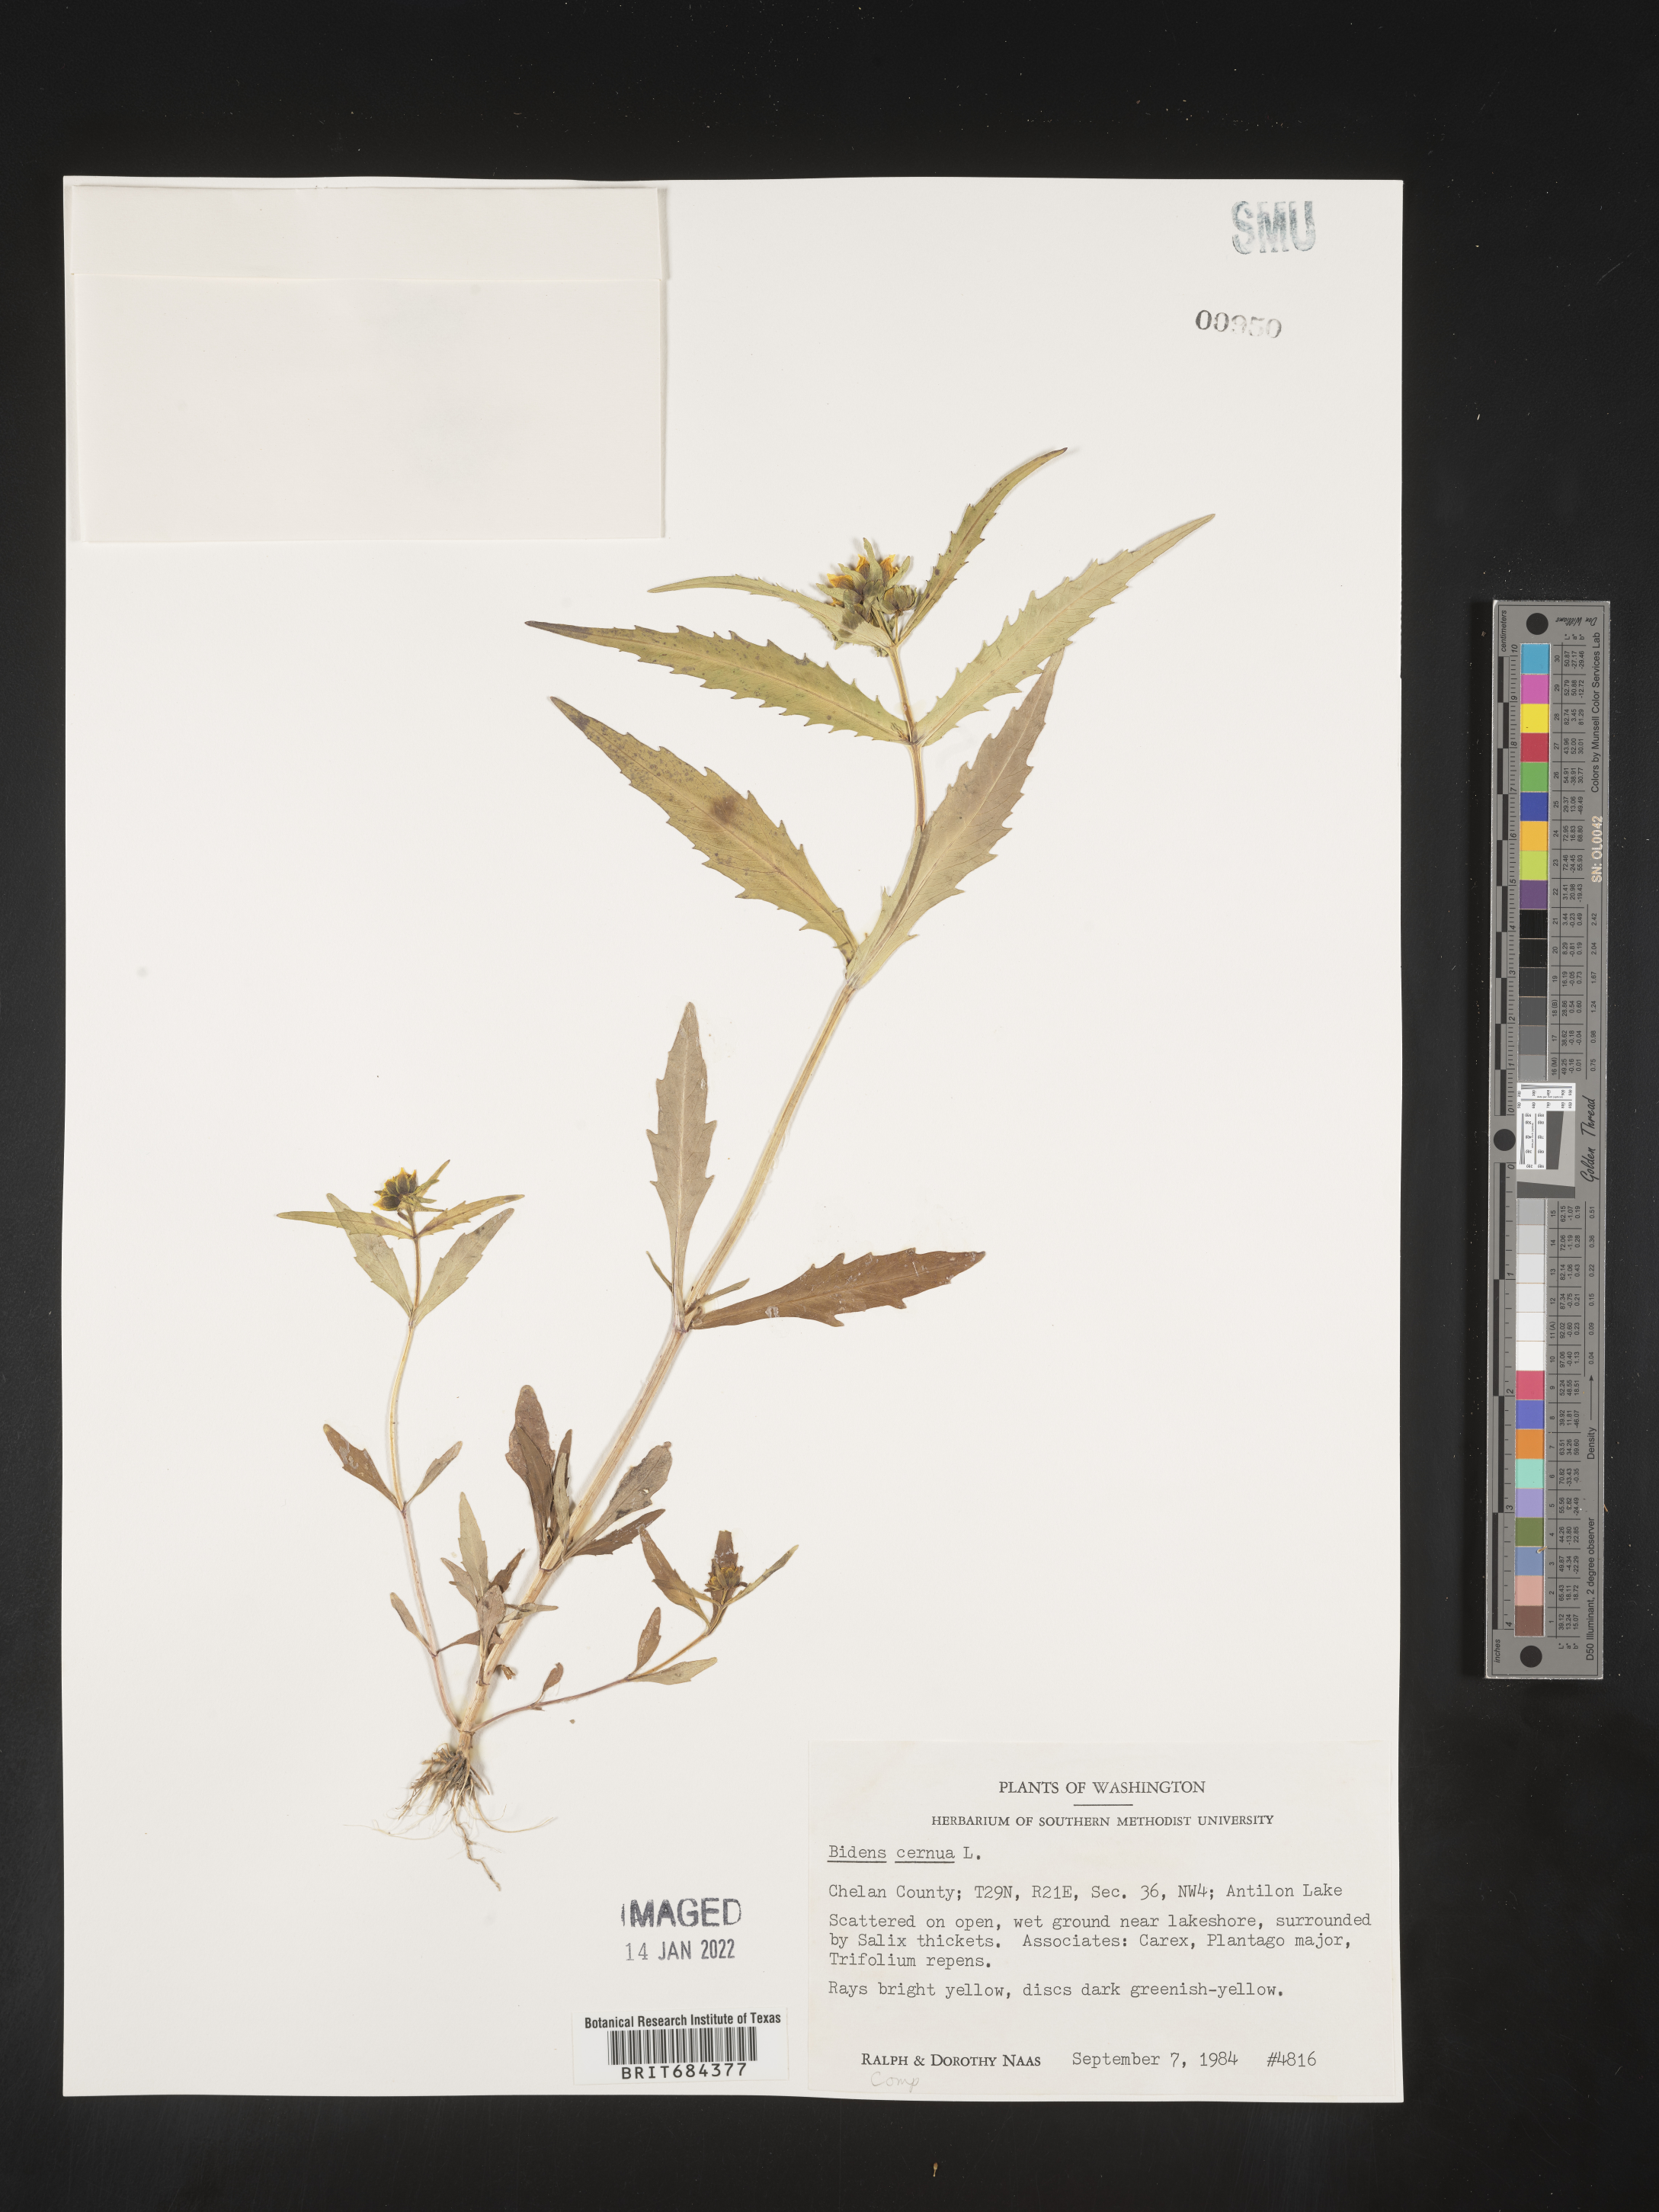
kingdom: Plantae
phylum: Tracheophyta
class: Magnoliopsida
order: Asterales
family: Asteraceae
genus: Bidens
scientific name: Bidens cernua
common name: Nodding bur-marigold
